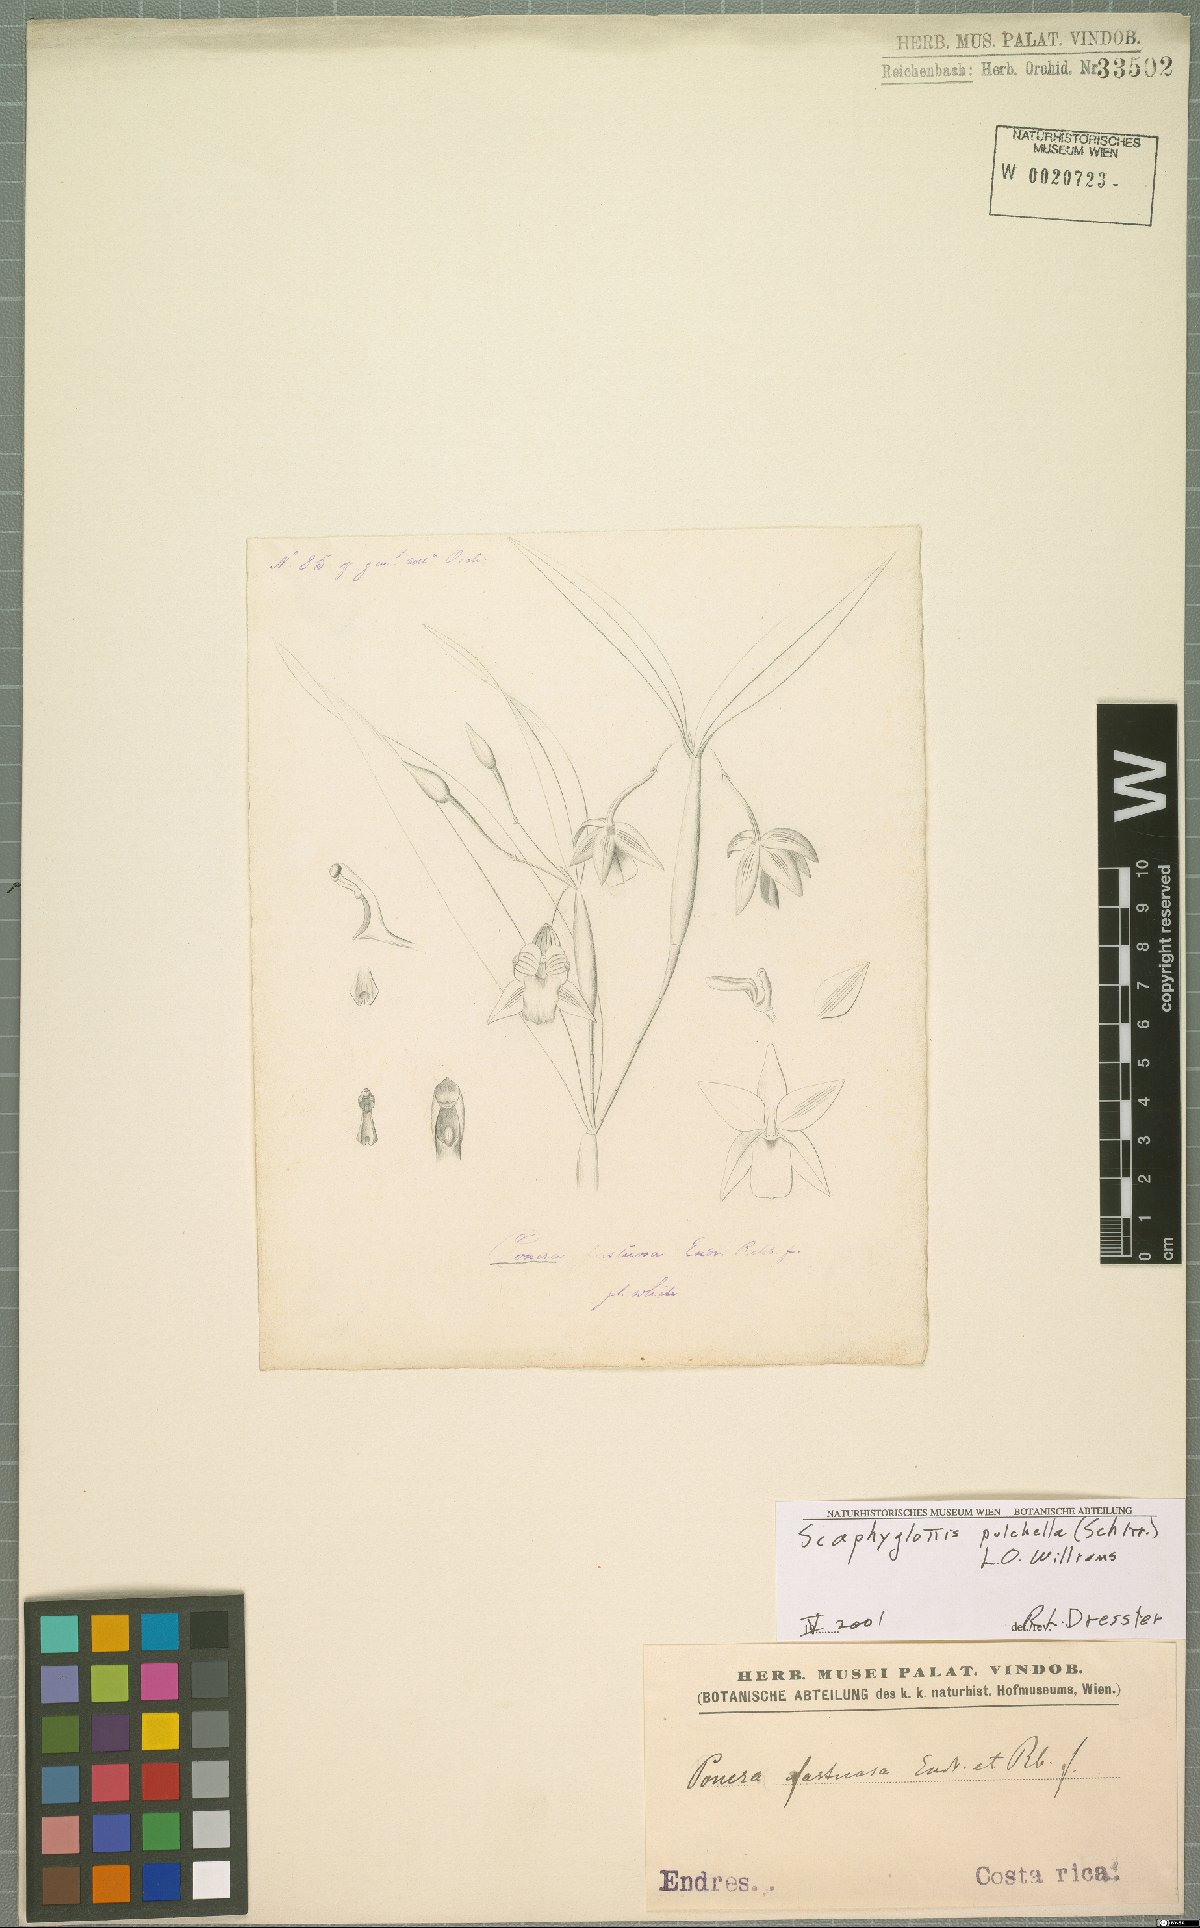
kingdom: Plantae
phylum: Tracheophyta
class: Liliopsida
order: Asparagales
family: Orchidaceae
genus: Scaphyglottis
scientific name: Scaphyglottis pulchella
